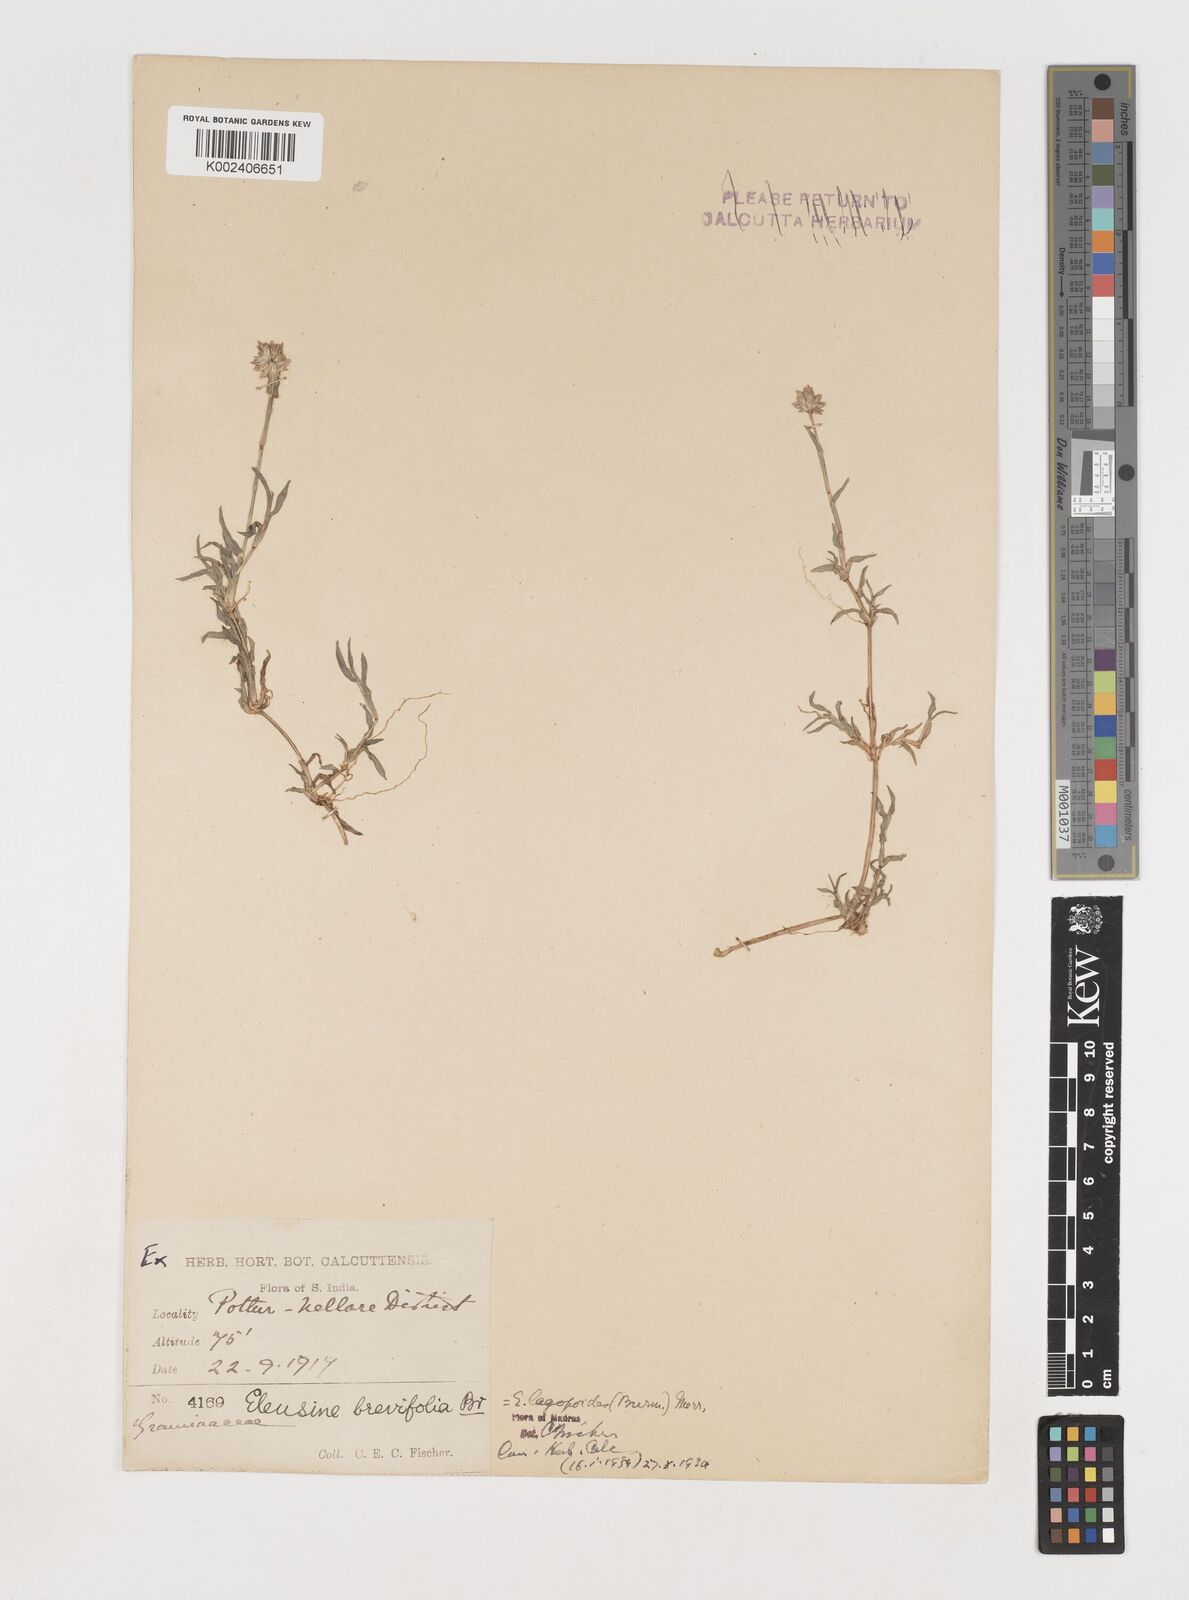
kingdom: Plantae
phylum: Tracheophyta
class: Liliopsida
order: Poales
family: Poaceae
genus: Coelachyrum
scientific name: Coelachyrum lagopoides
